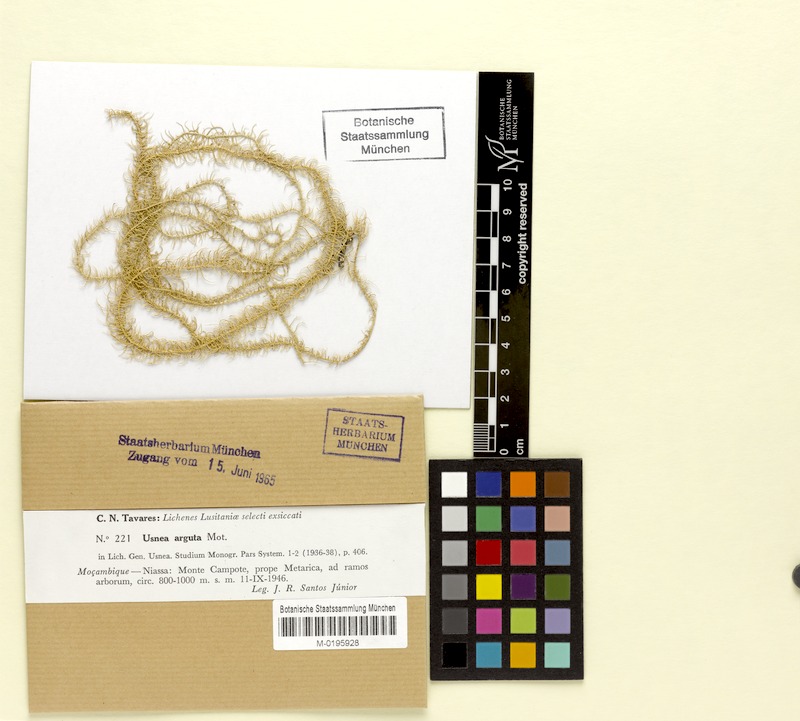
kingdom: Fungi
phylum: Ascomycota
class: Lecanoromycetes
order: Lecanorales
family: Parmeliaceae
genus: Usnea
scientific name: Usnea arguta
